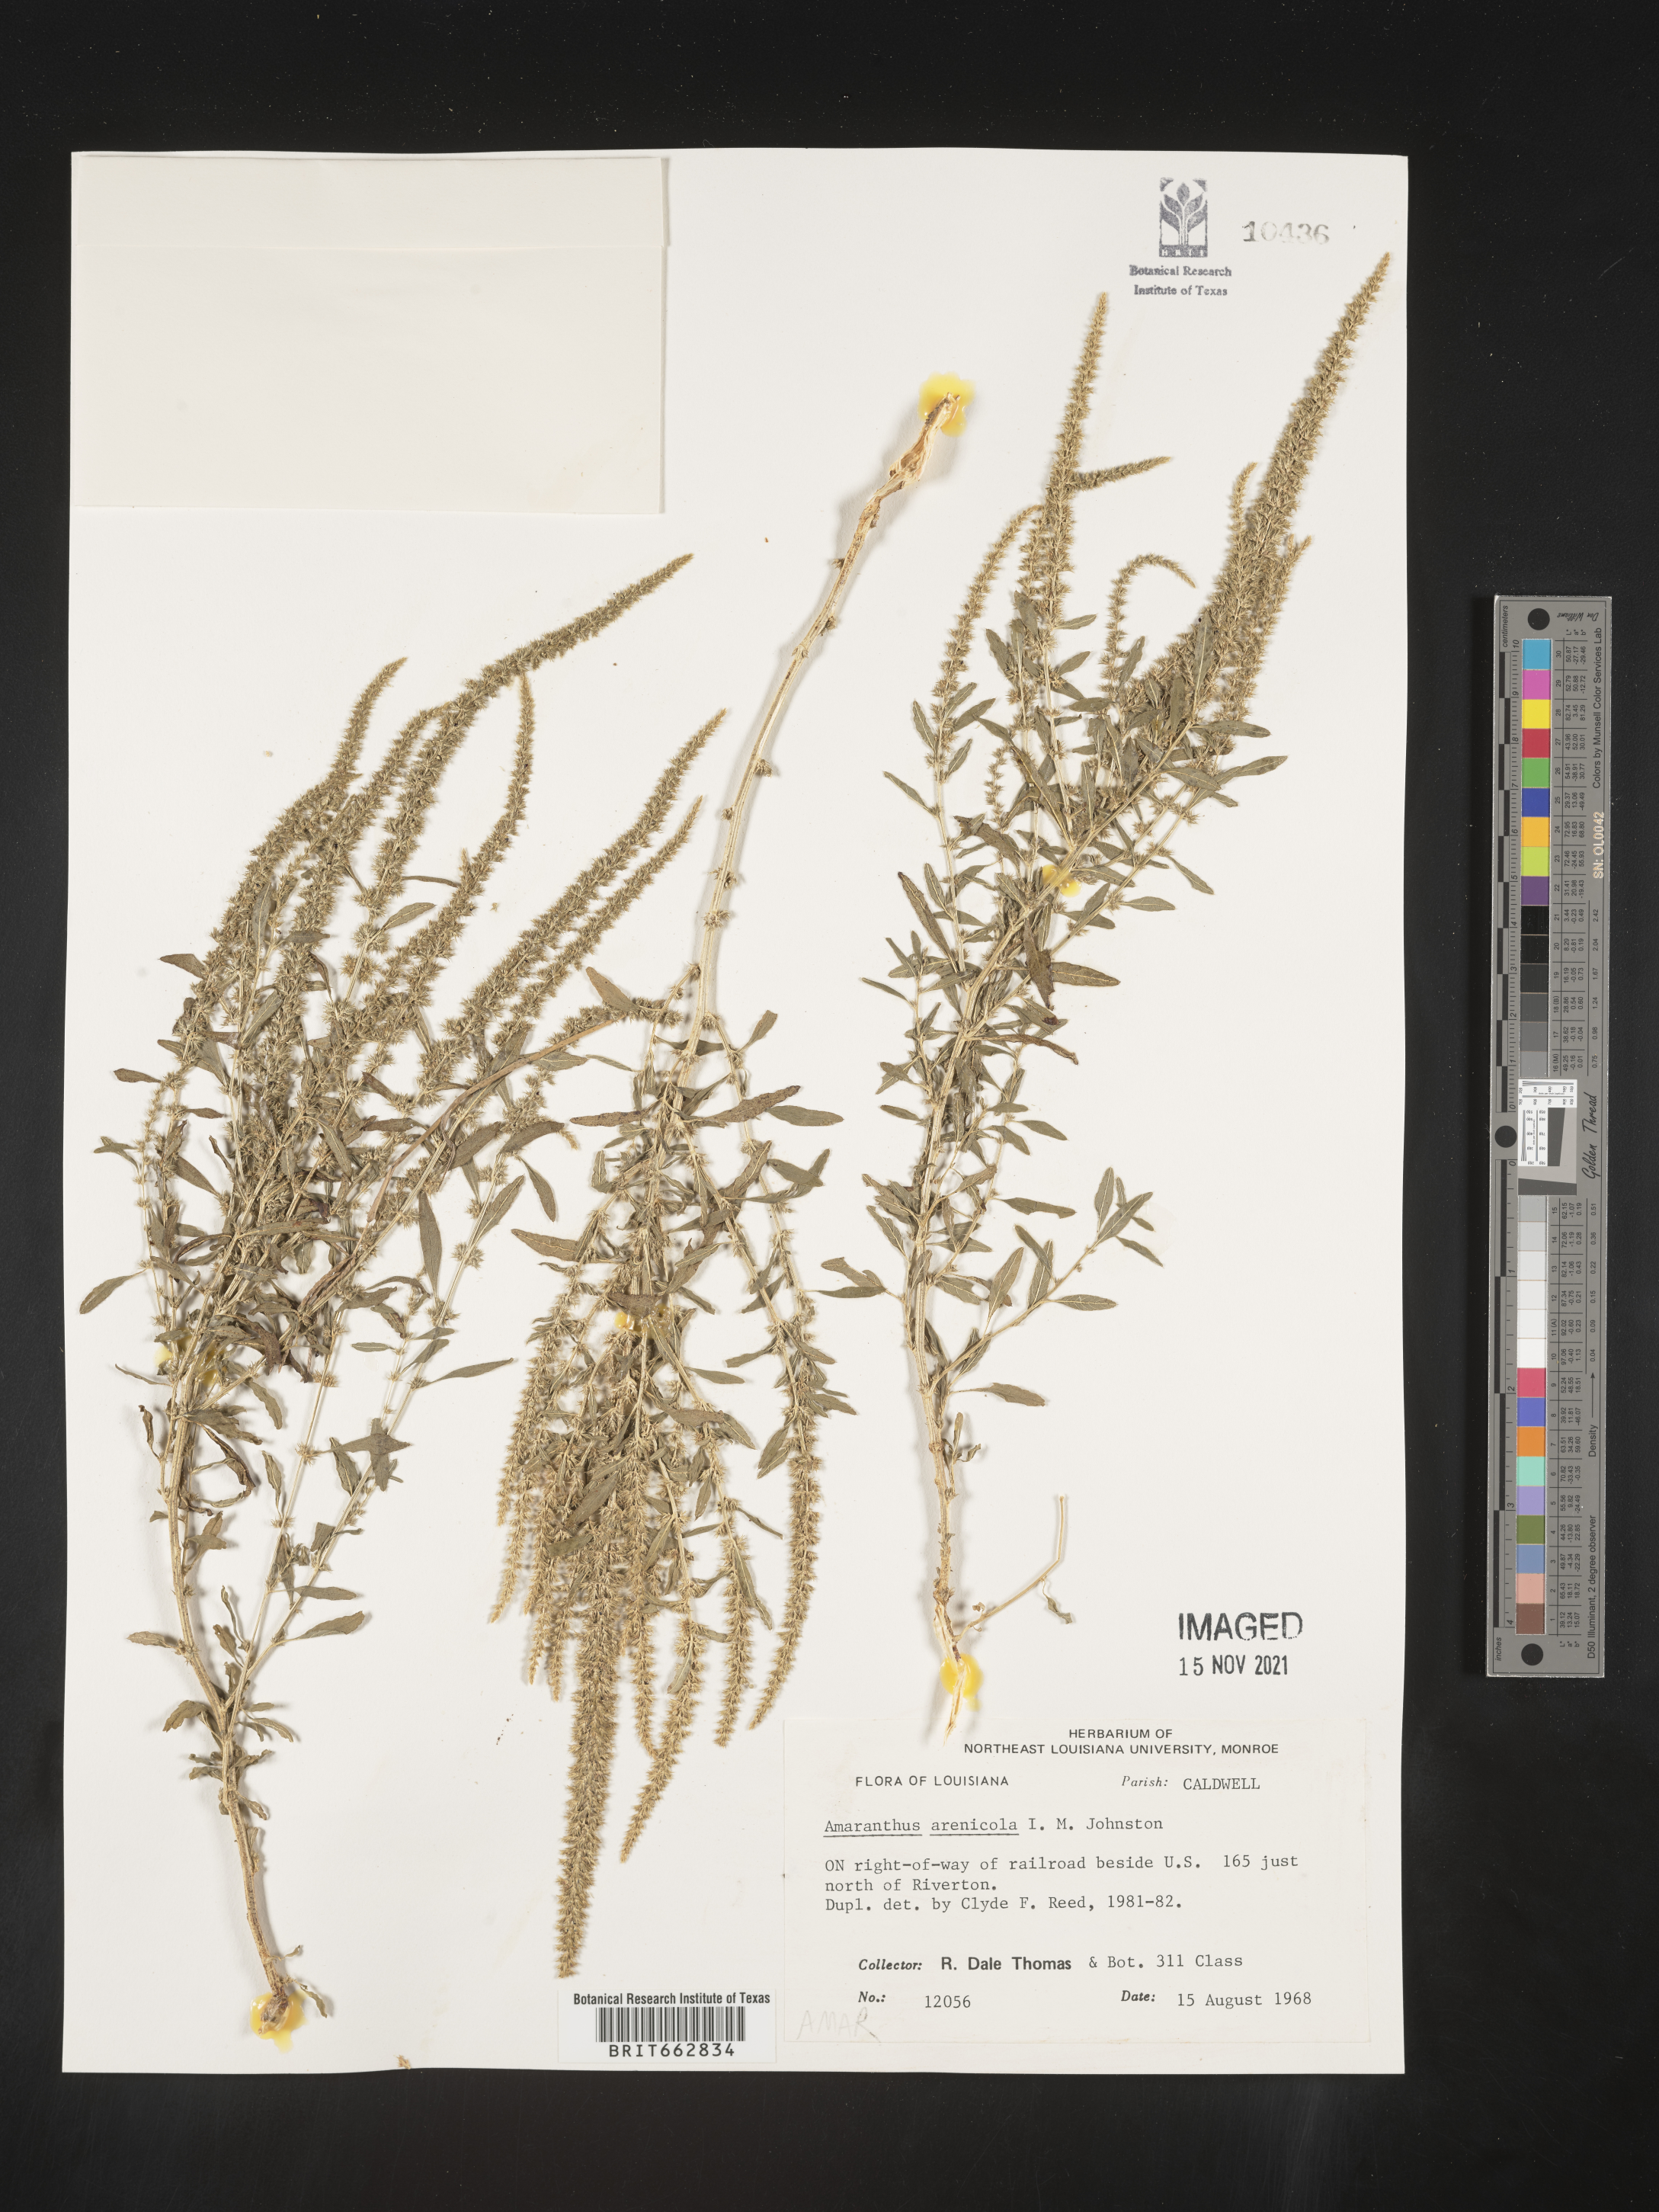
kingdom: Plantae
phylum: Tracheophyta
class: Magnoliopsida
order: Caryophyllales
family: Amaranthaceae
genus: Amaranthus
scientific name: Amaranthus arenicola
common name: Sandhills amaranth
